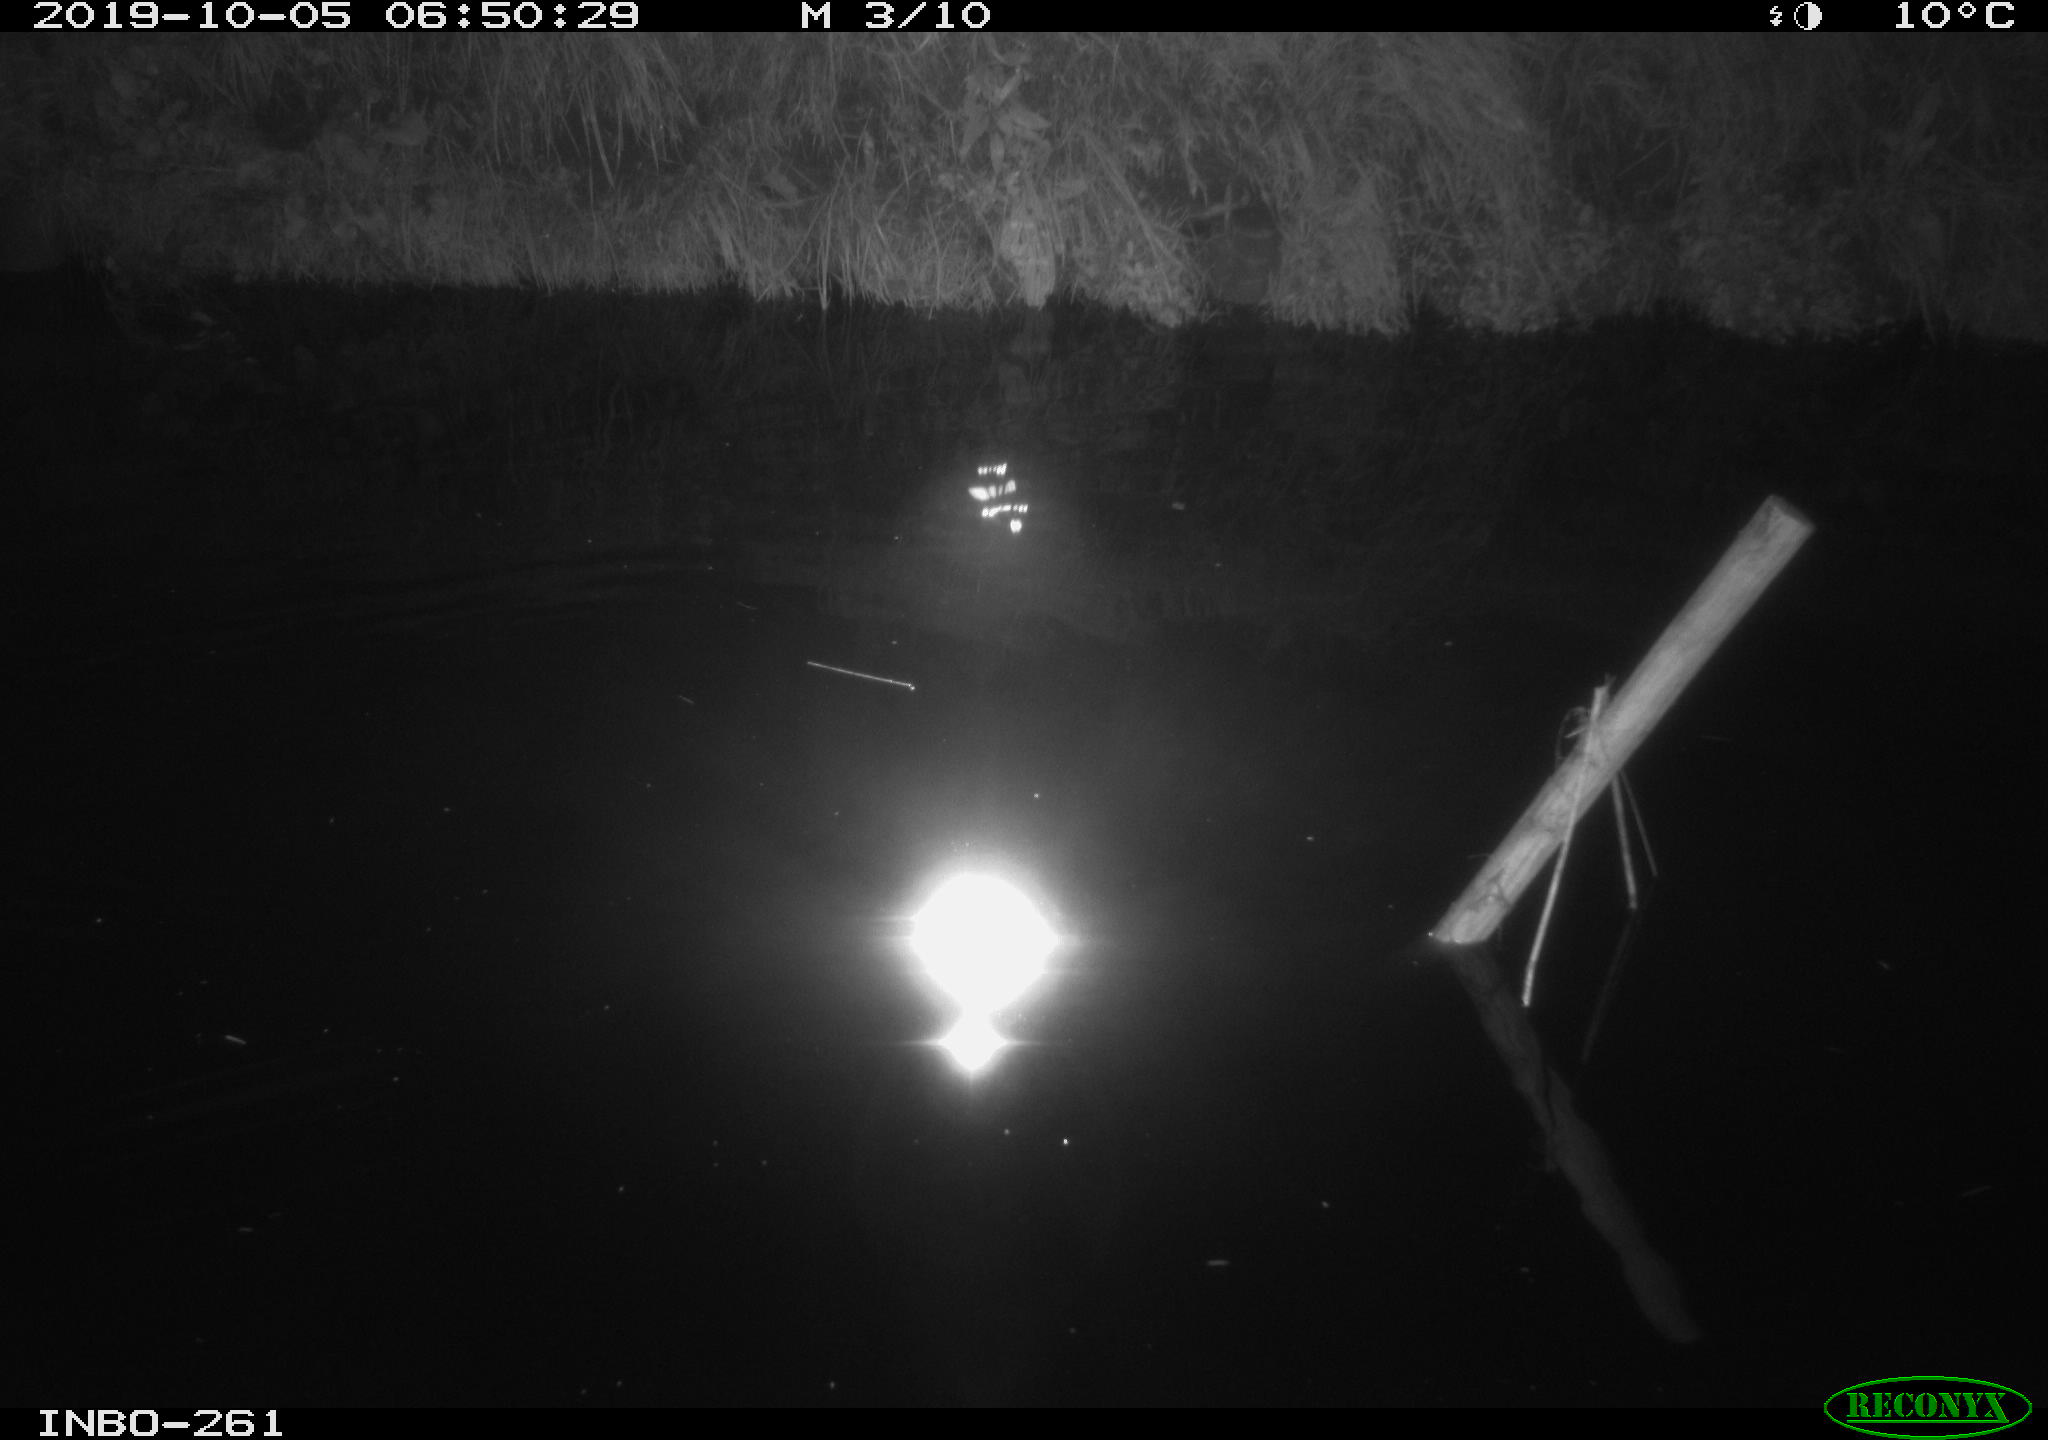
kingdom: Animalia
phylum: Chordata
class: Aves
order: Anseriformes
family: Anatidae
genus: Anas
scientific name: Anas platyrhynchos
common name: Mallard
